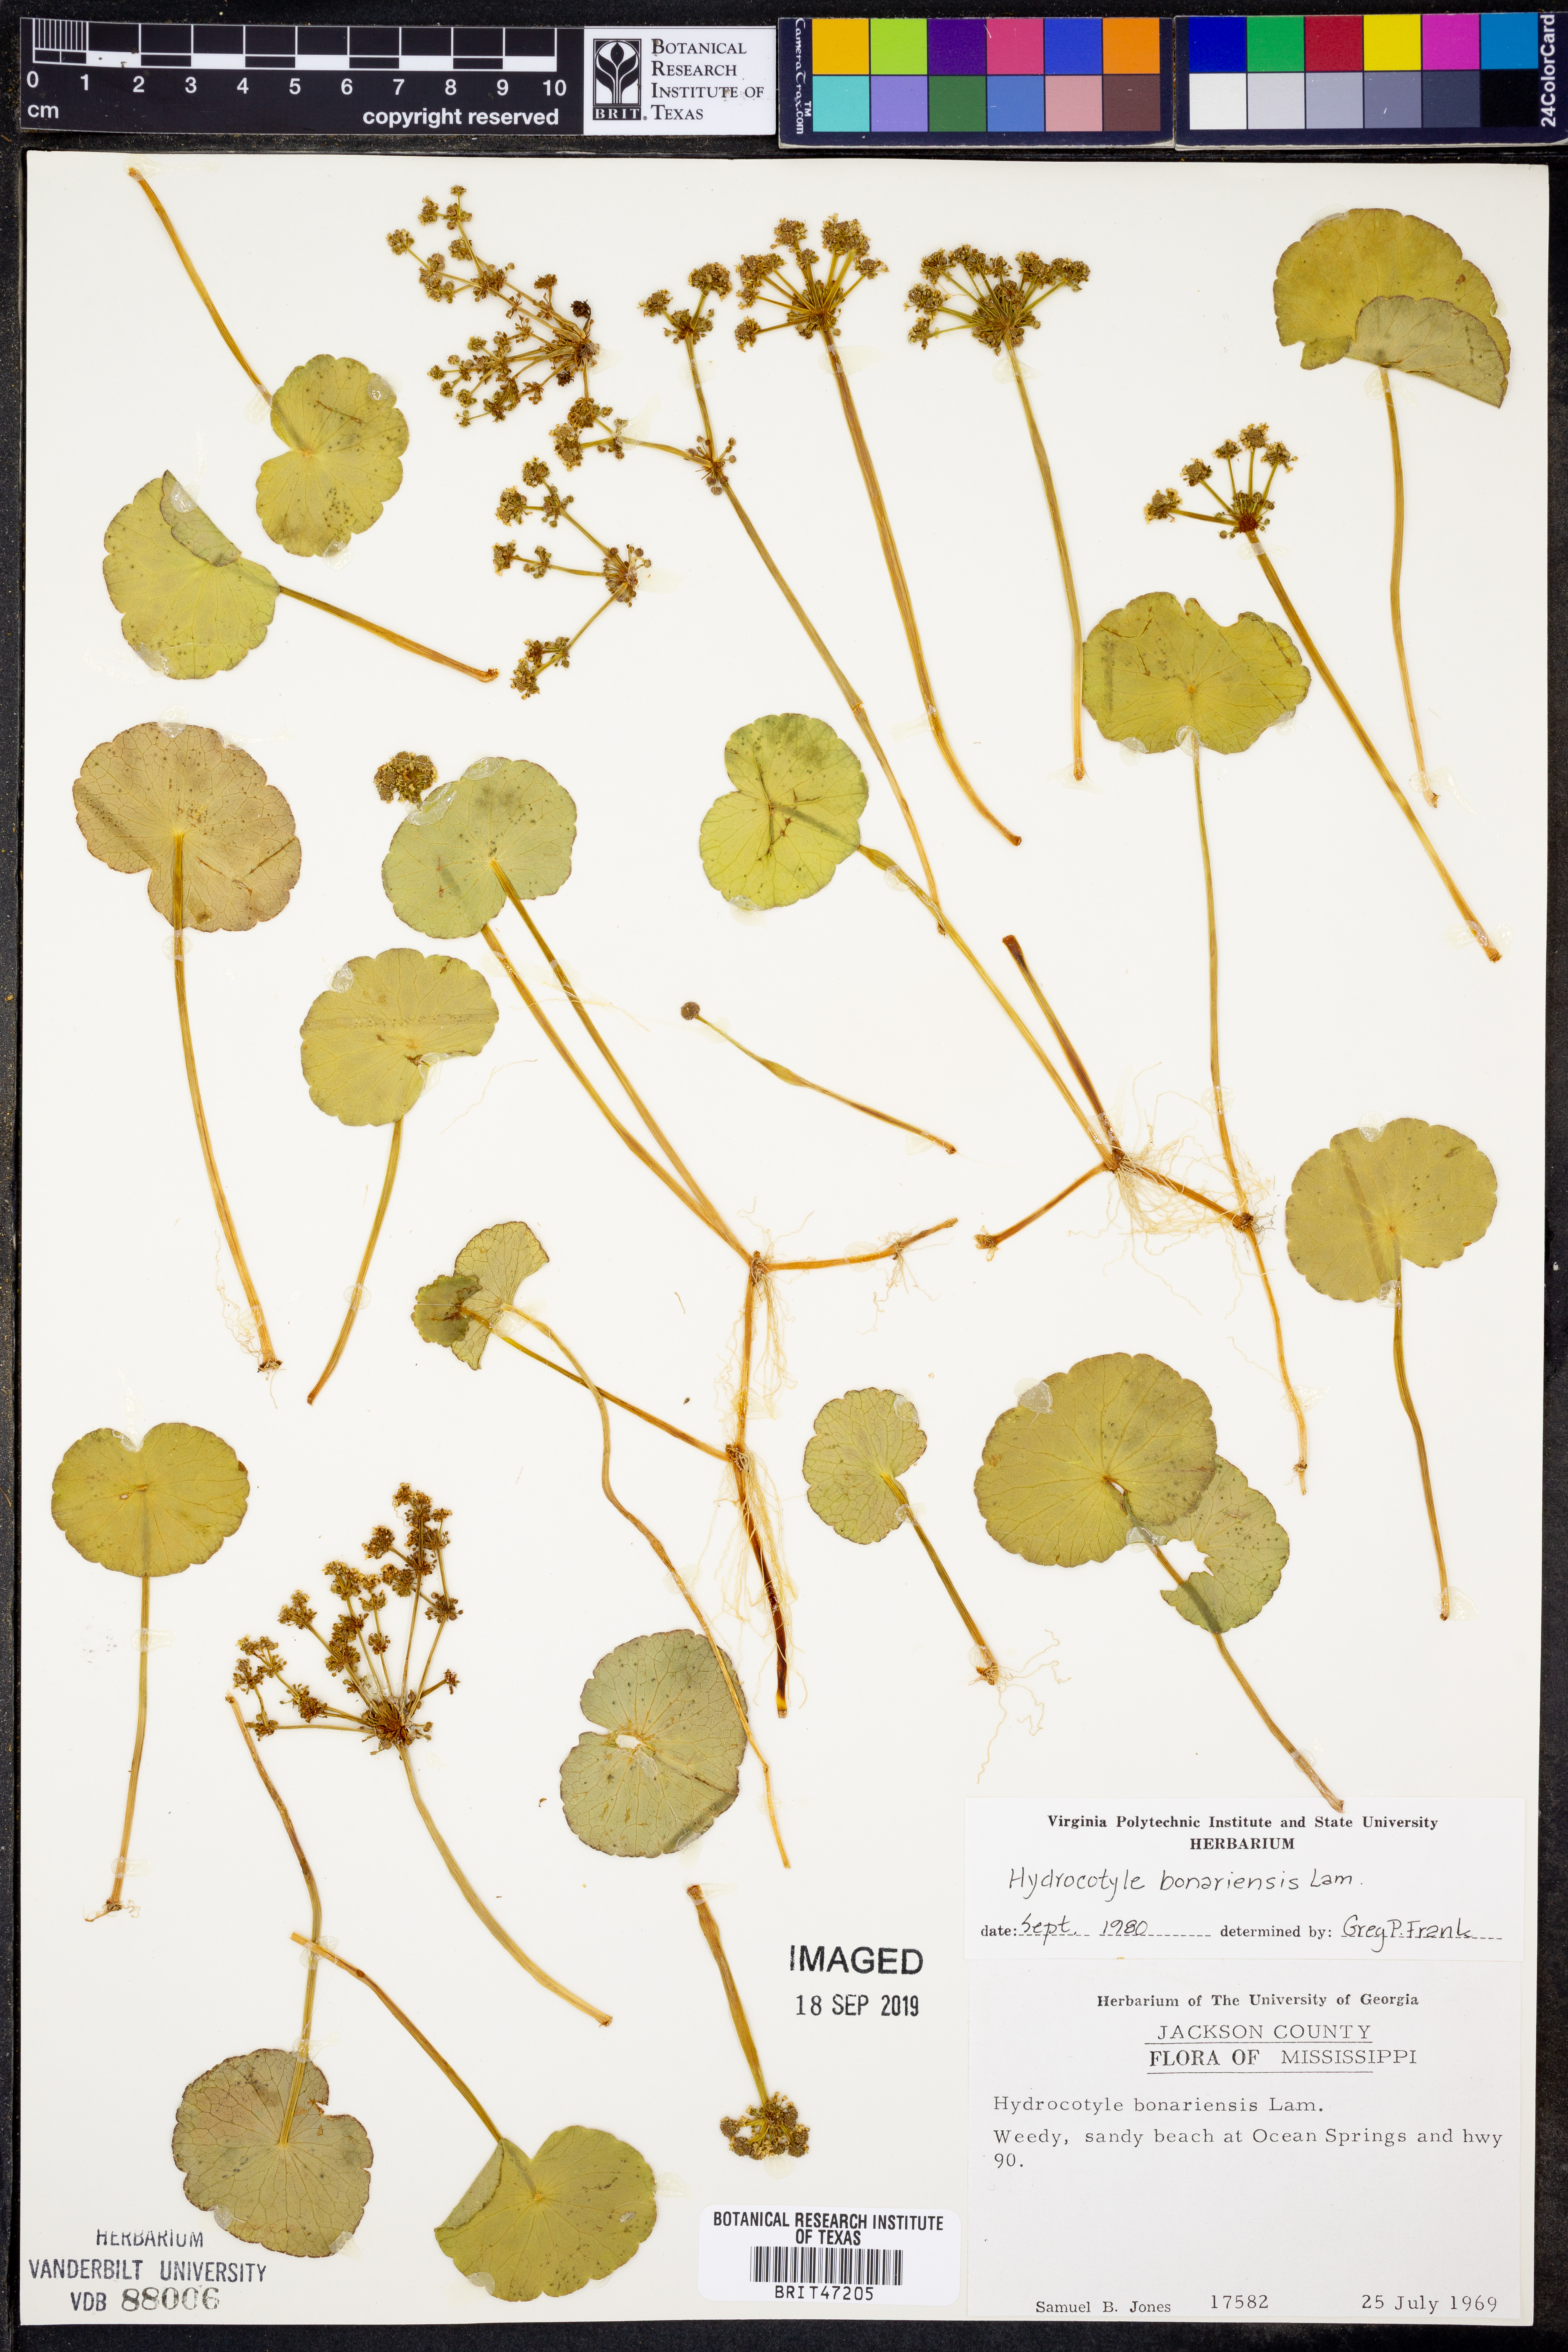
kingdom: Plantae
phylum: Tracheophyta
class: Magnoliopsida
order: Apiales
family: Araliaceae
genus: Hydrocotyle
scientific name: Hydrocotyle bonariensis
